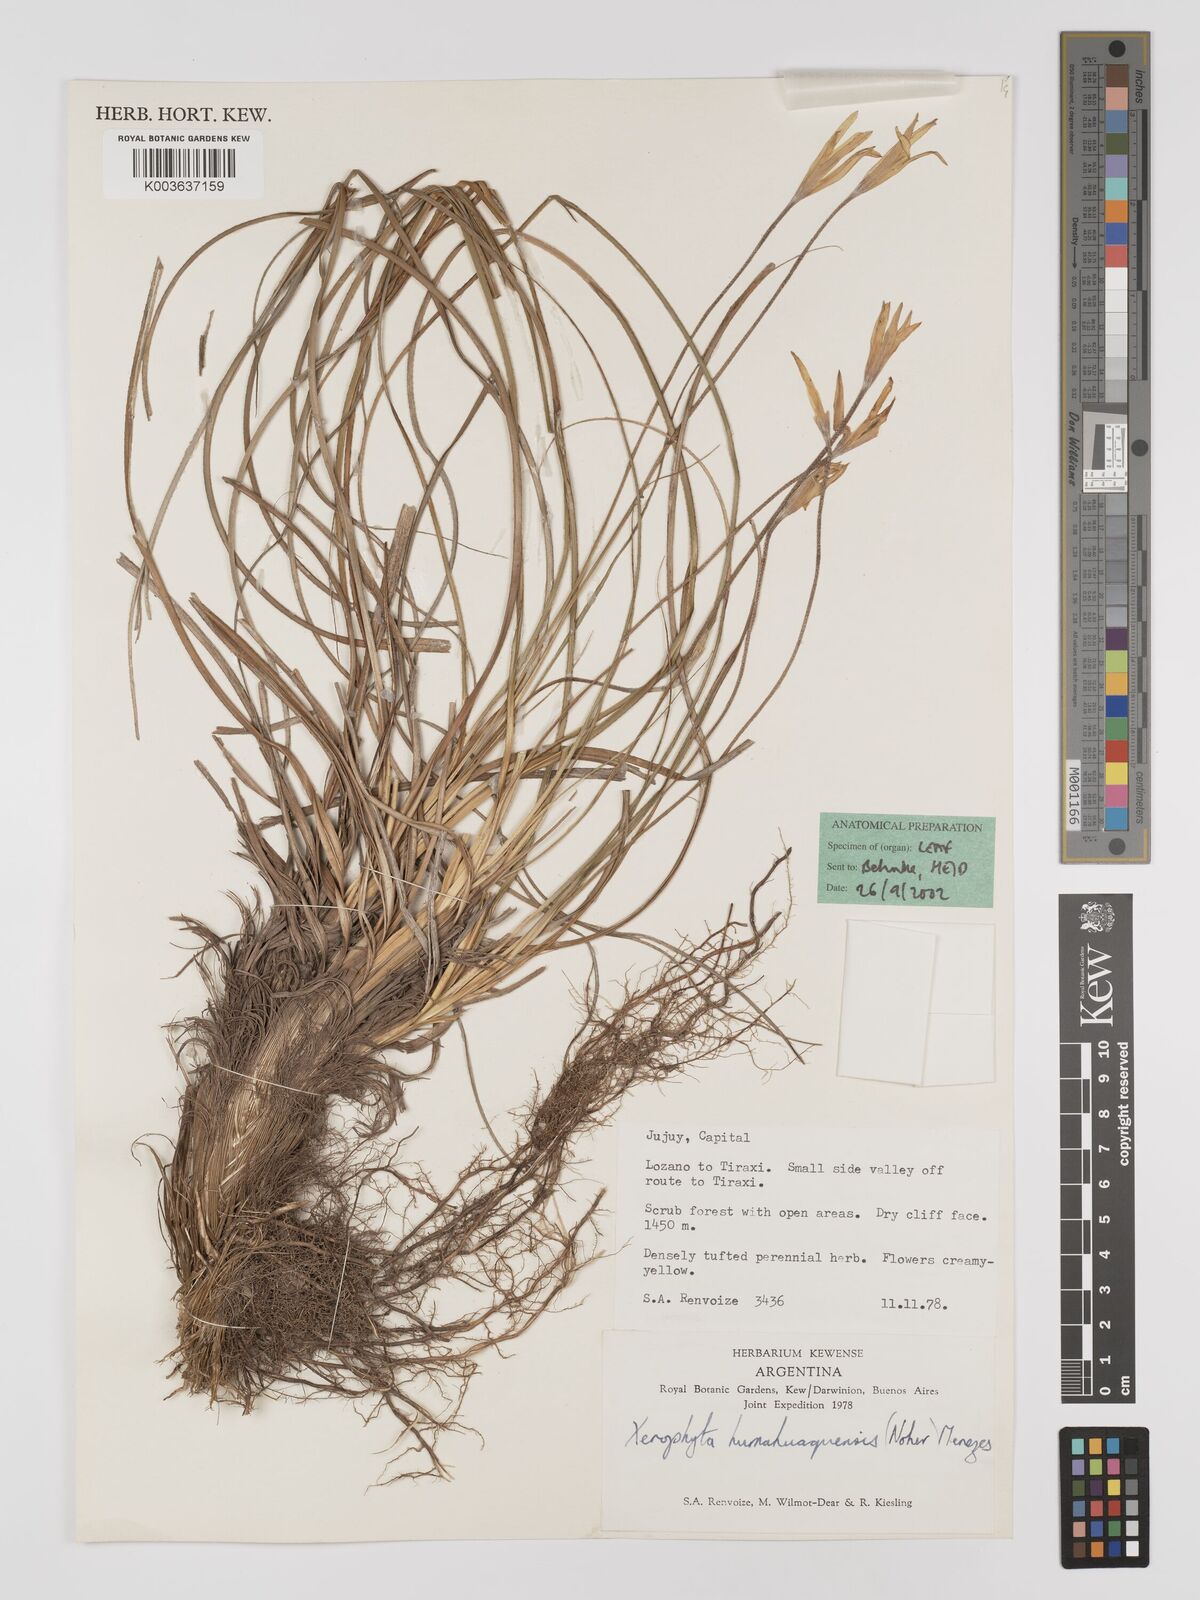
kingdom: Plantae
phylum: Tracheophyta
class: Liliopsida
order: Pandanales
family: Velloziaceae
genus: Xerophyta
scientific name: Xerophyta
